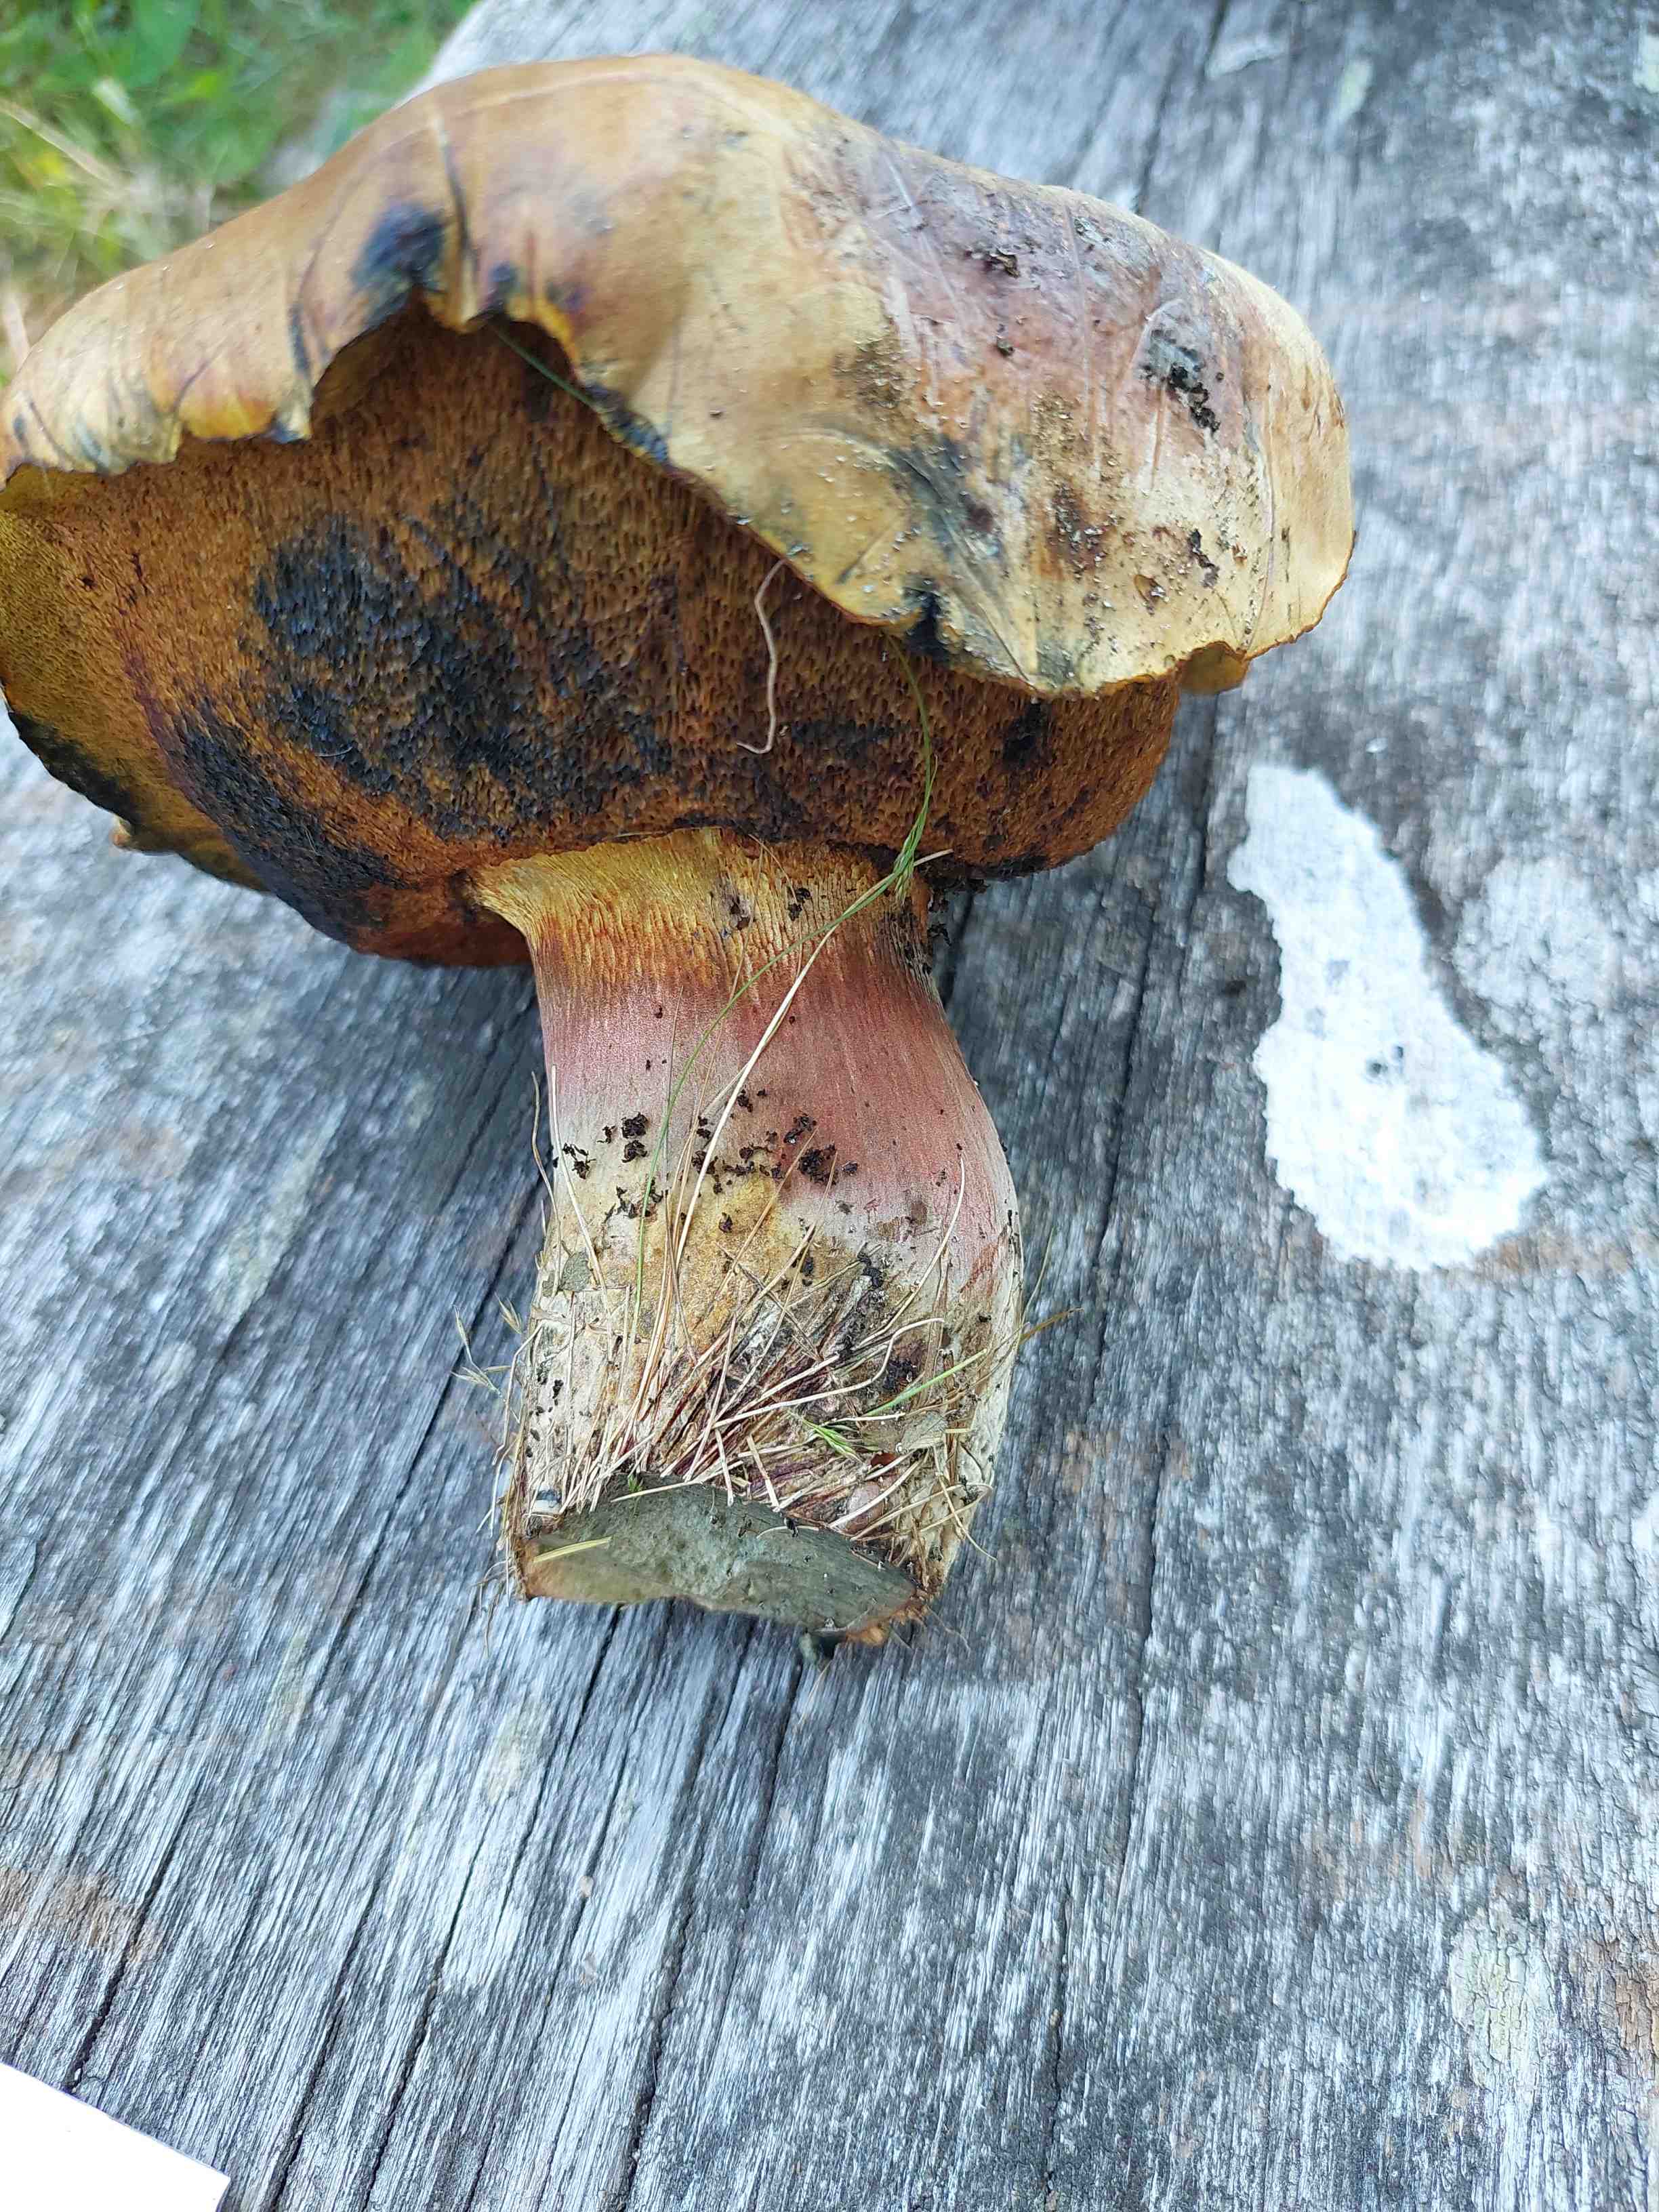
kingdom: Fungi
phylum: Basidiomycota
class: Agaricomycetes
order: Boletales
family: Boletaceae
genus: Suillellus
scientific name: Suillellus
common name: indigorørhat
